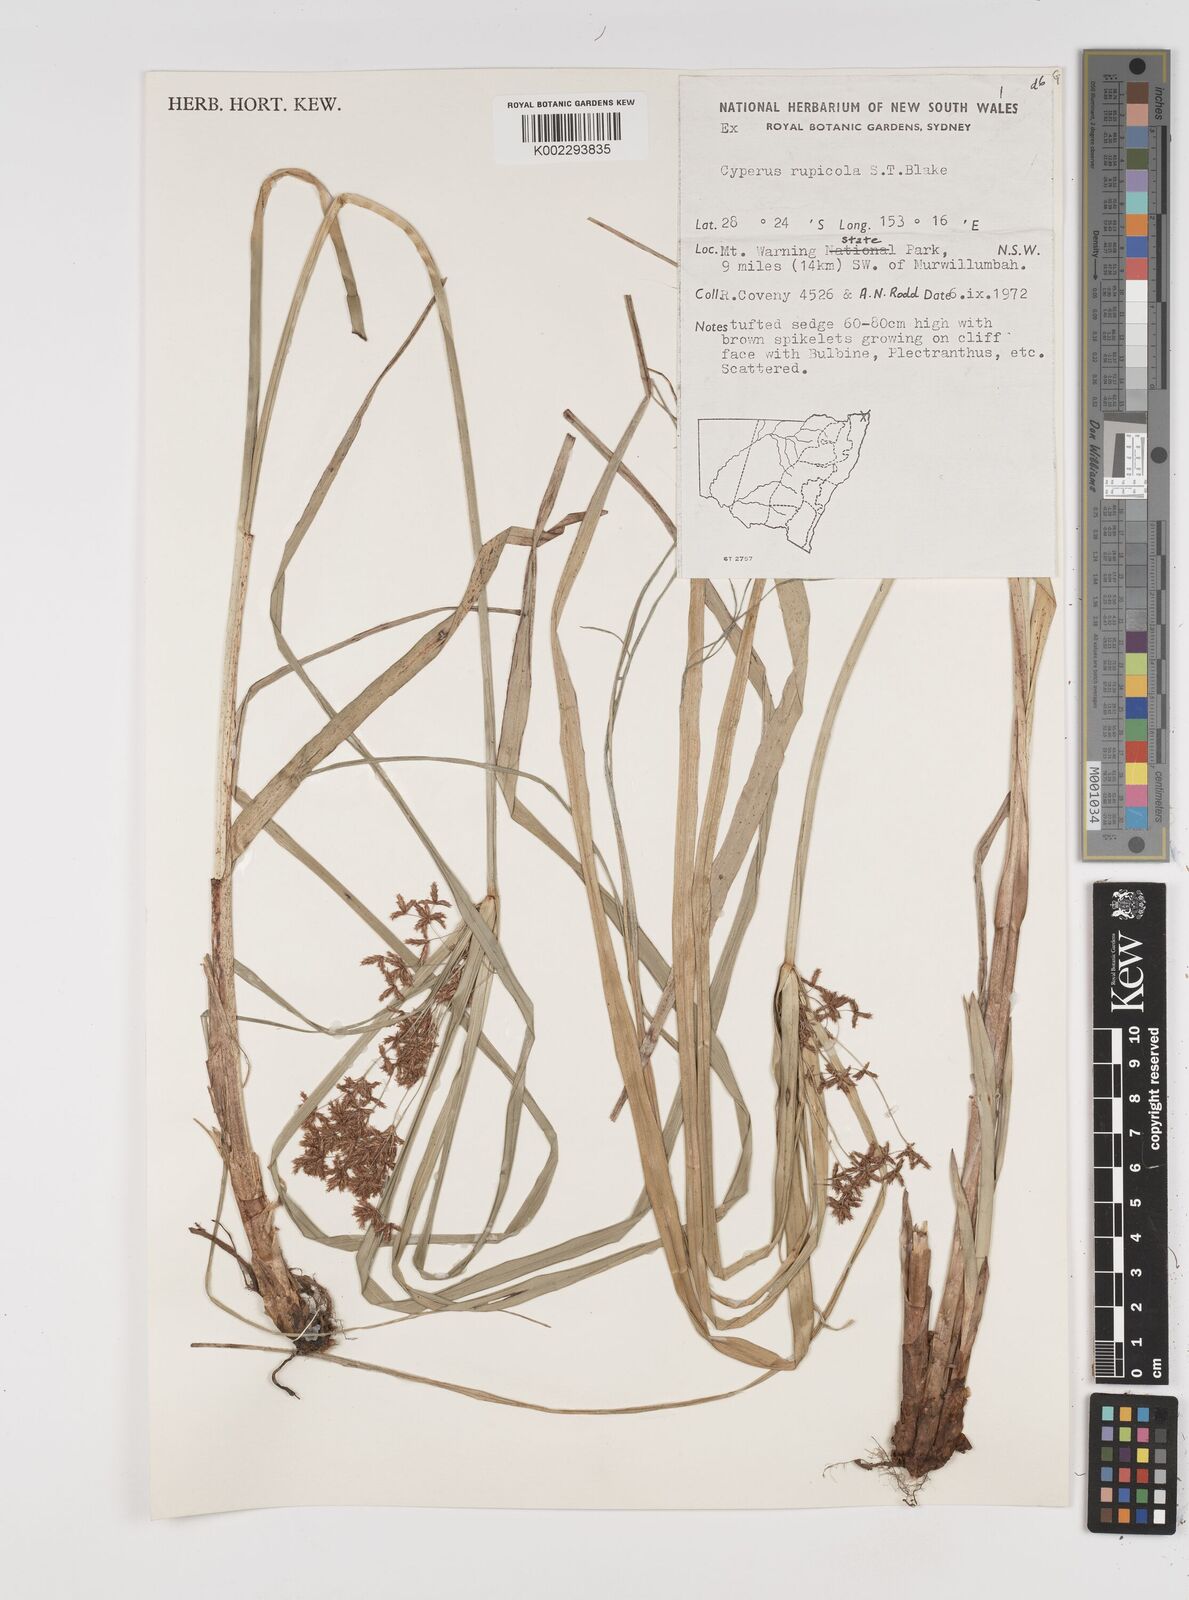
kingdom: Plantae
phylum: Tracheophyta
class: Liliopsida
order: Poales
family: Cyperaceae
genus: Cyperus
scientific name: Cyperus rupicola
